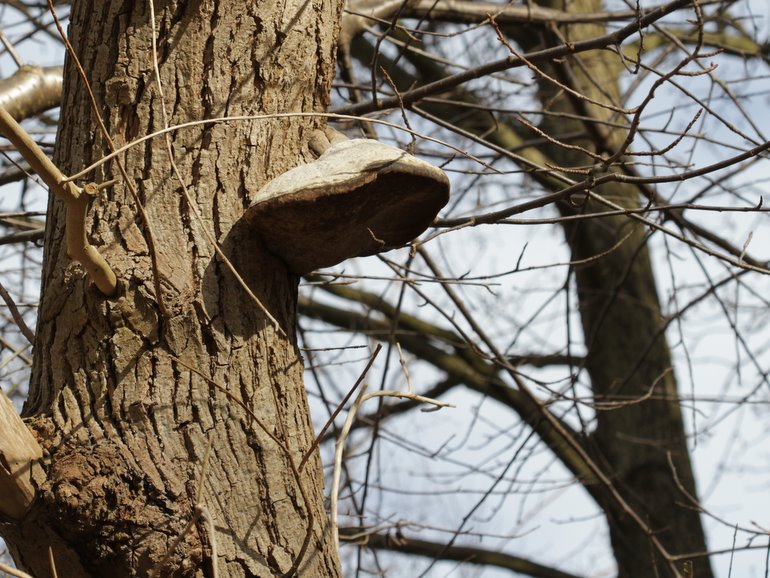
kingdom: Fungi
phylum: Basidiomycota
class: Agaricomycetes
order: Hymenochaetales
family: Hymenochaetaceae
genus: Phellinus
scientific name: Phellinus igniarius
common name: almindelig ildporesvamp
